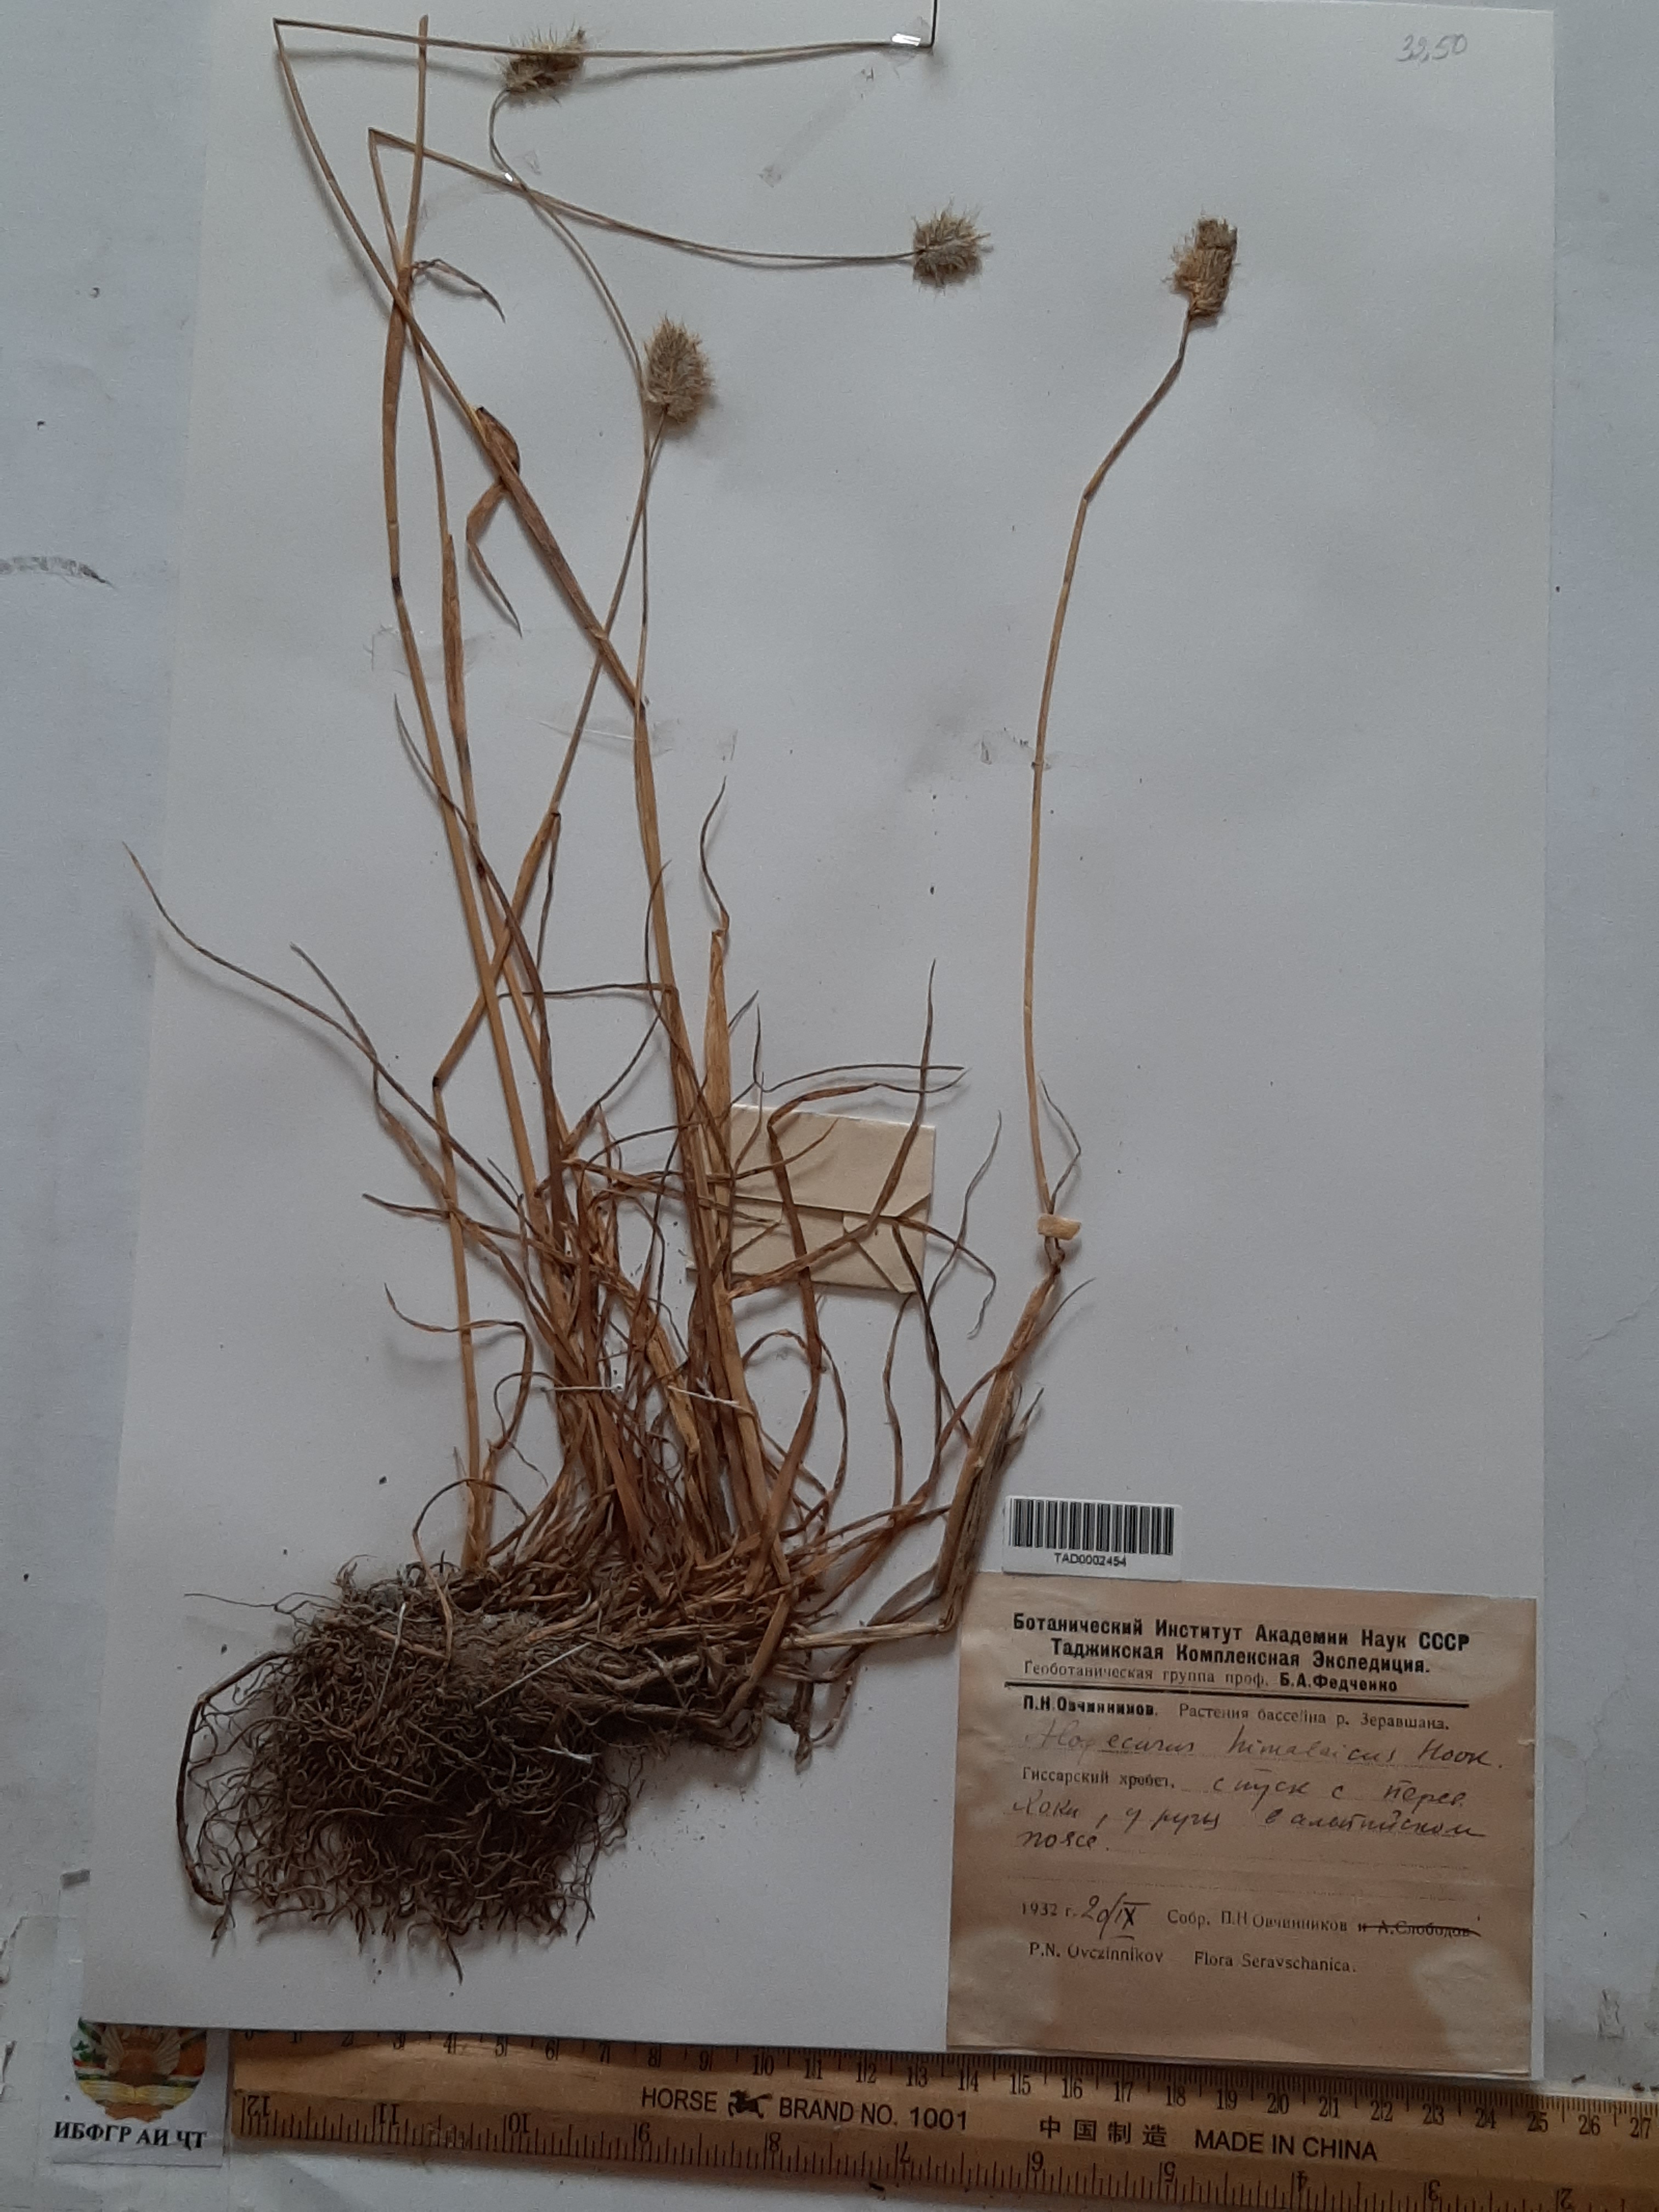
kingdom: Plantae
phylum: Tracheophyta
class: Liliopsida
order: Poales
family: Poaceae
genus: Alopecurus
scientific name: Alopecurus himalaicus
